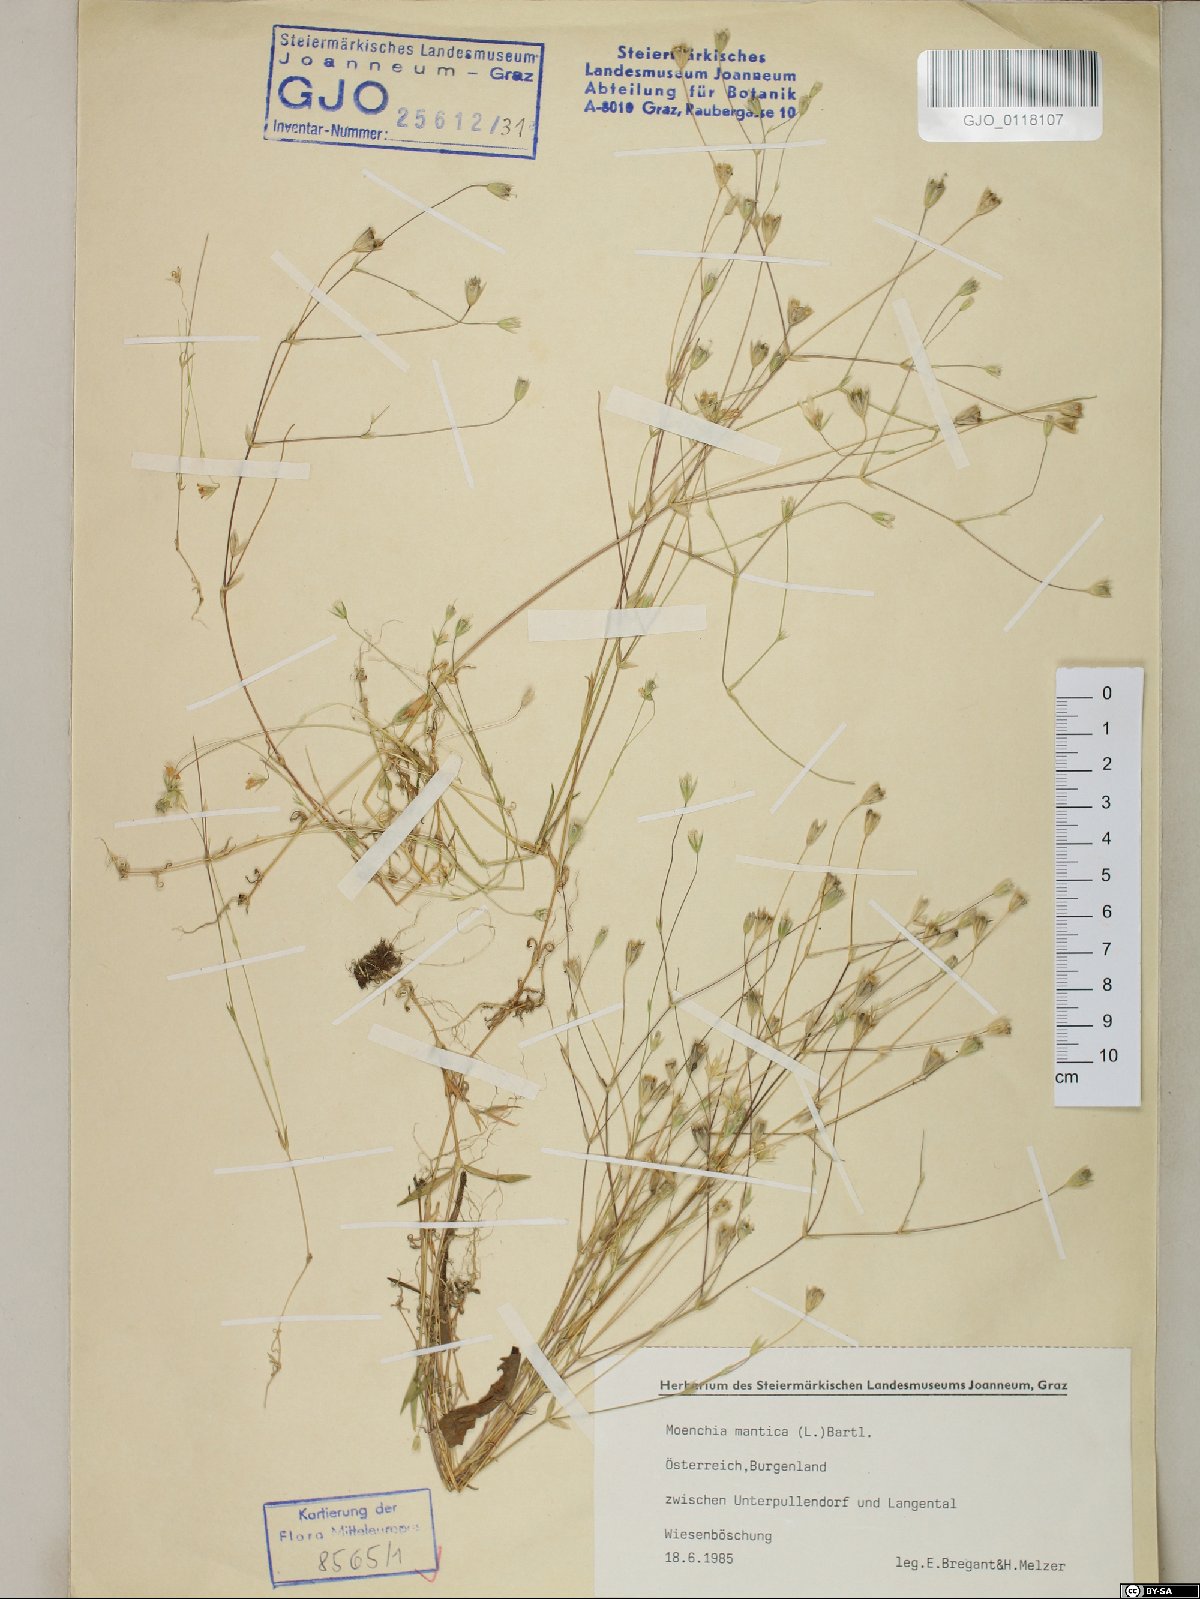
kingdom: Plantae
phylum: Tracheophyta
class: Magnoliopsida
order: Caryophyllales
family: Caryophyllaceae
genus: Moenchia
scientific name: Moenchia mantica
